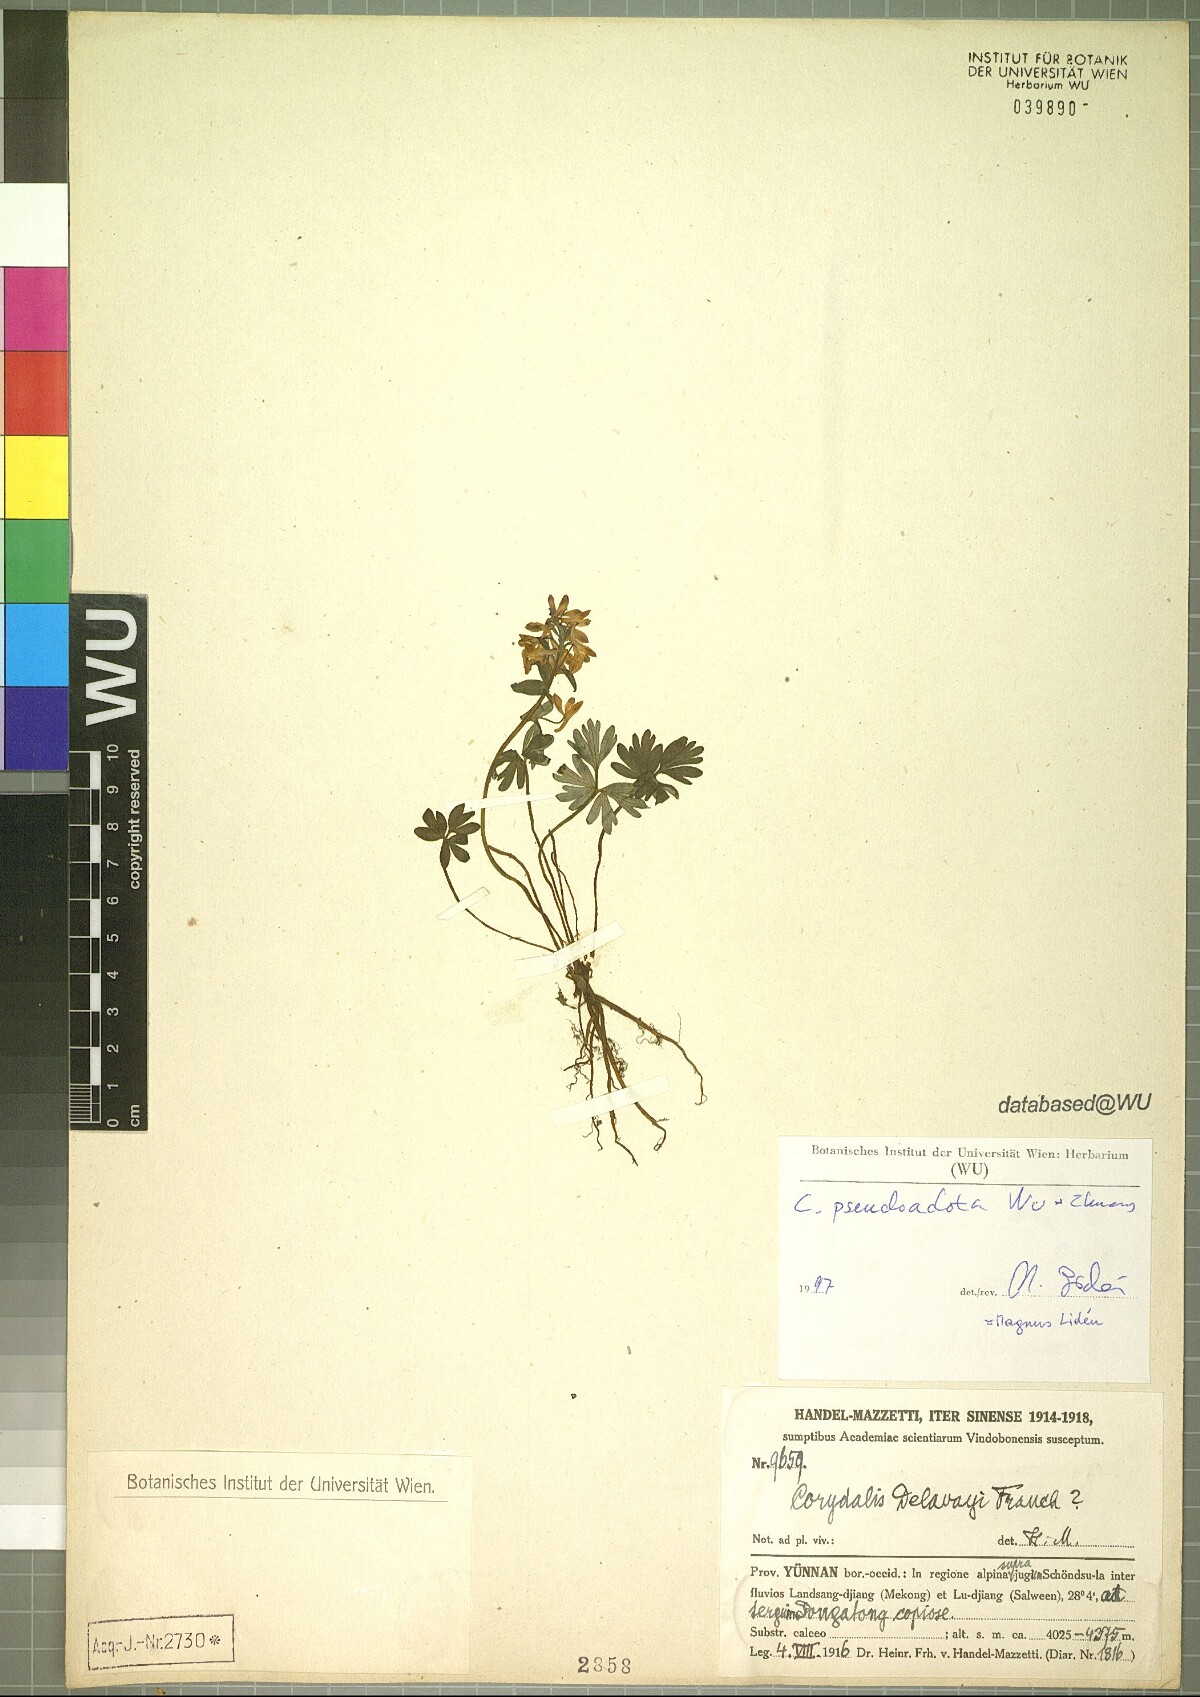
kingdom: Plantae
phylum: Tracheophyta
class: Magnoliopsida
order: Ranunculales
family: Papaveraceae
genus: Corydalis
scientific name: Corydalis pseudoadoxa
